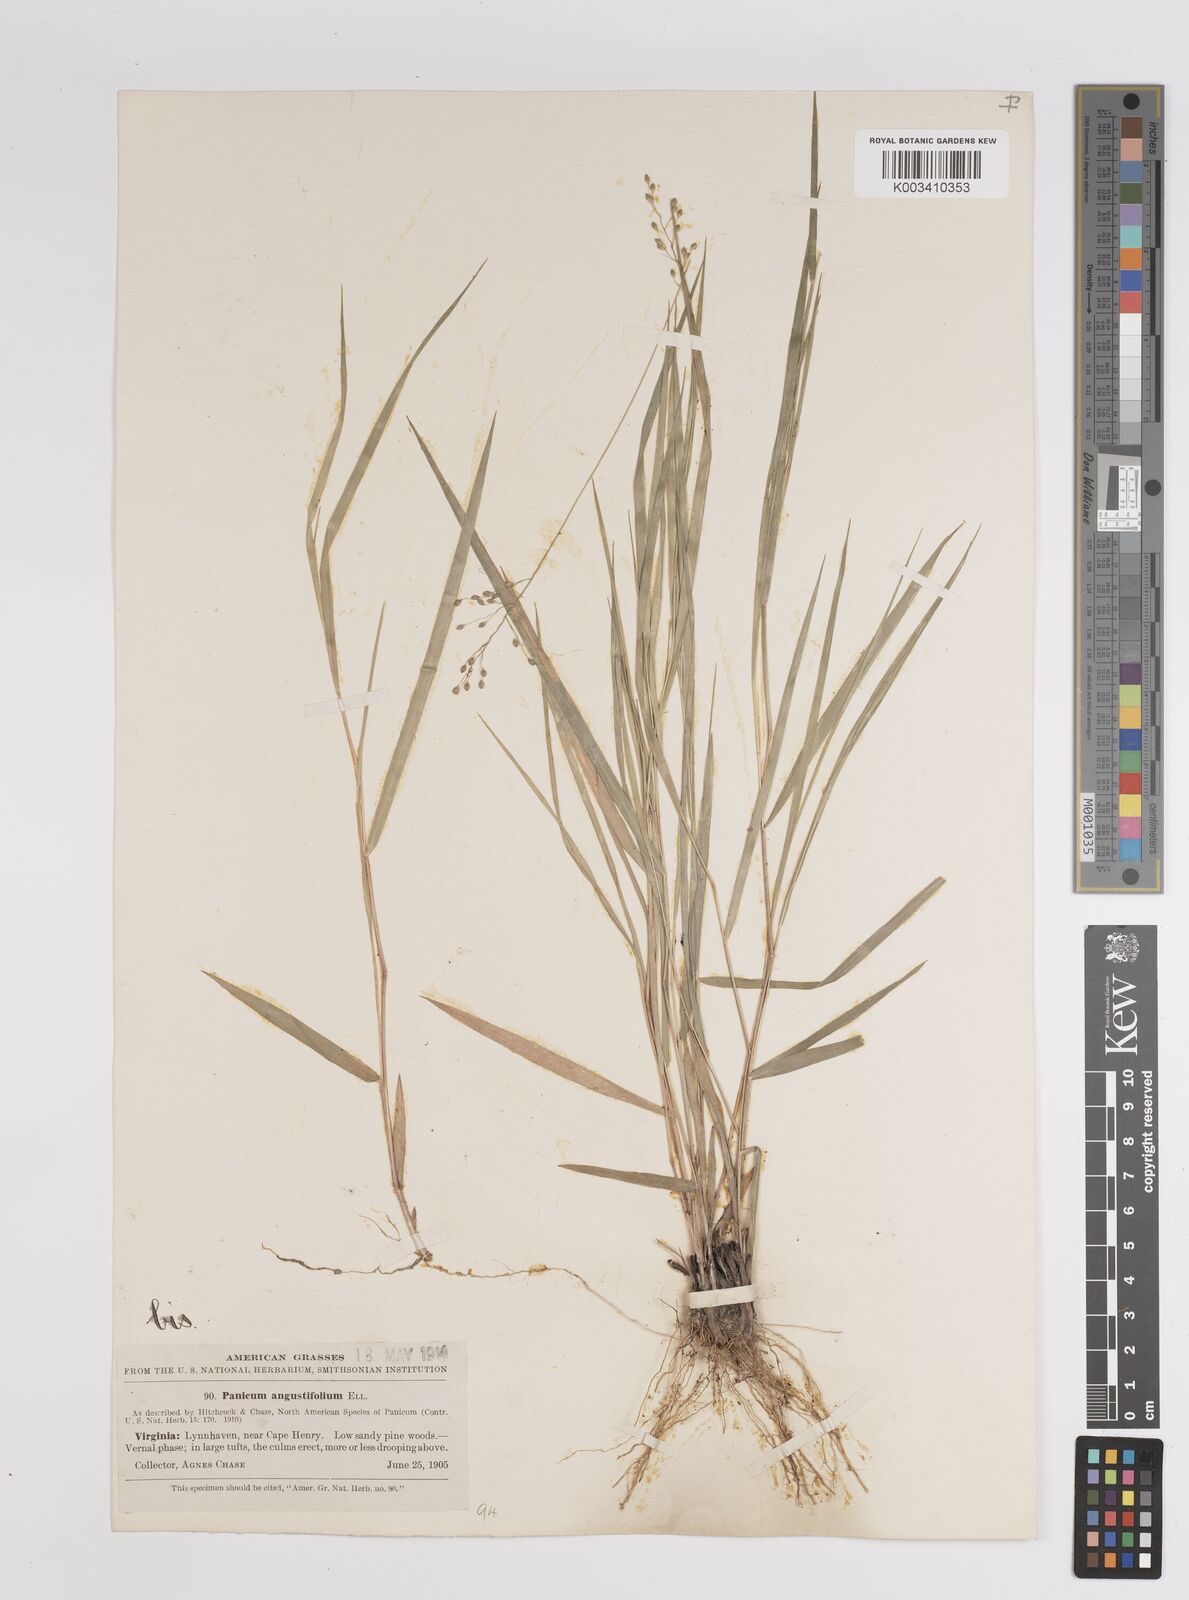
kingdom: Plantae
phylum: Tracheophyta
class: Liliopsida
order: Poales
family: Poaceae
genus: Dichanthelium
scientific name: Dichanthelium angustifolium
